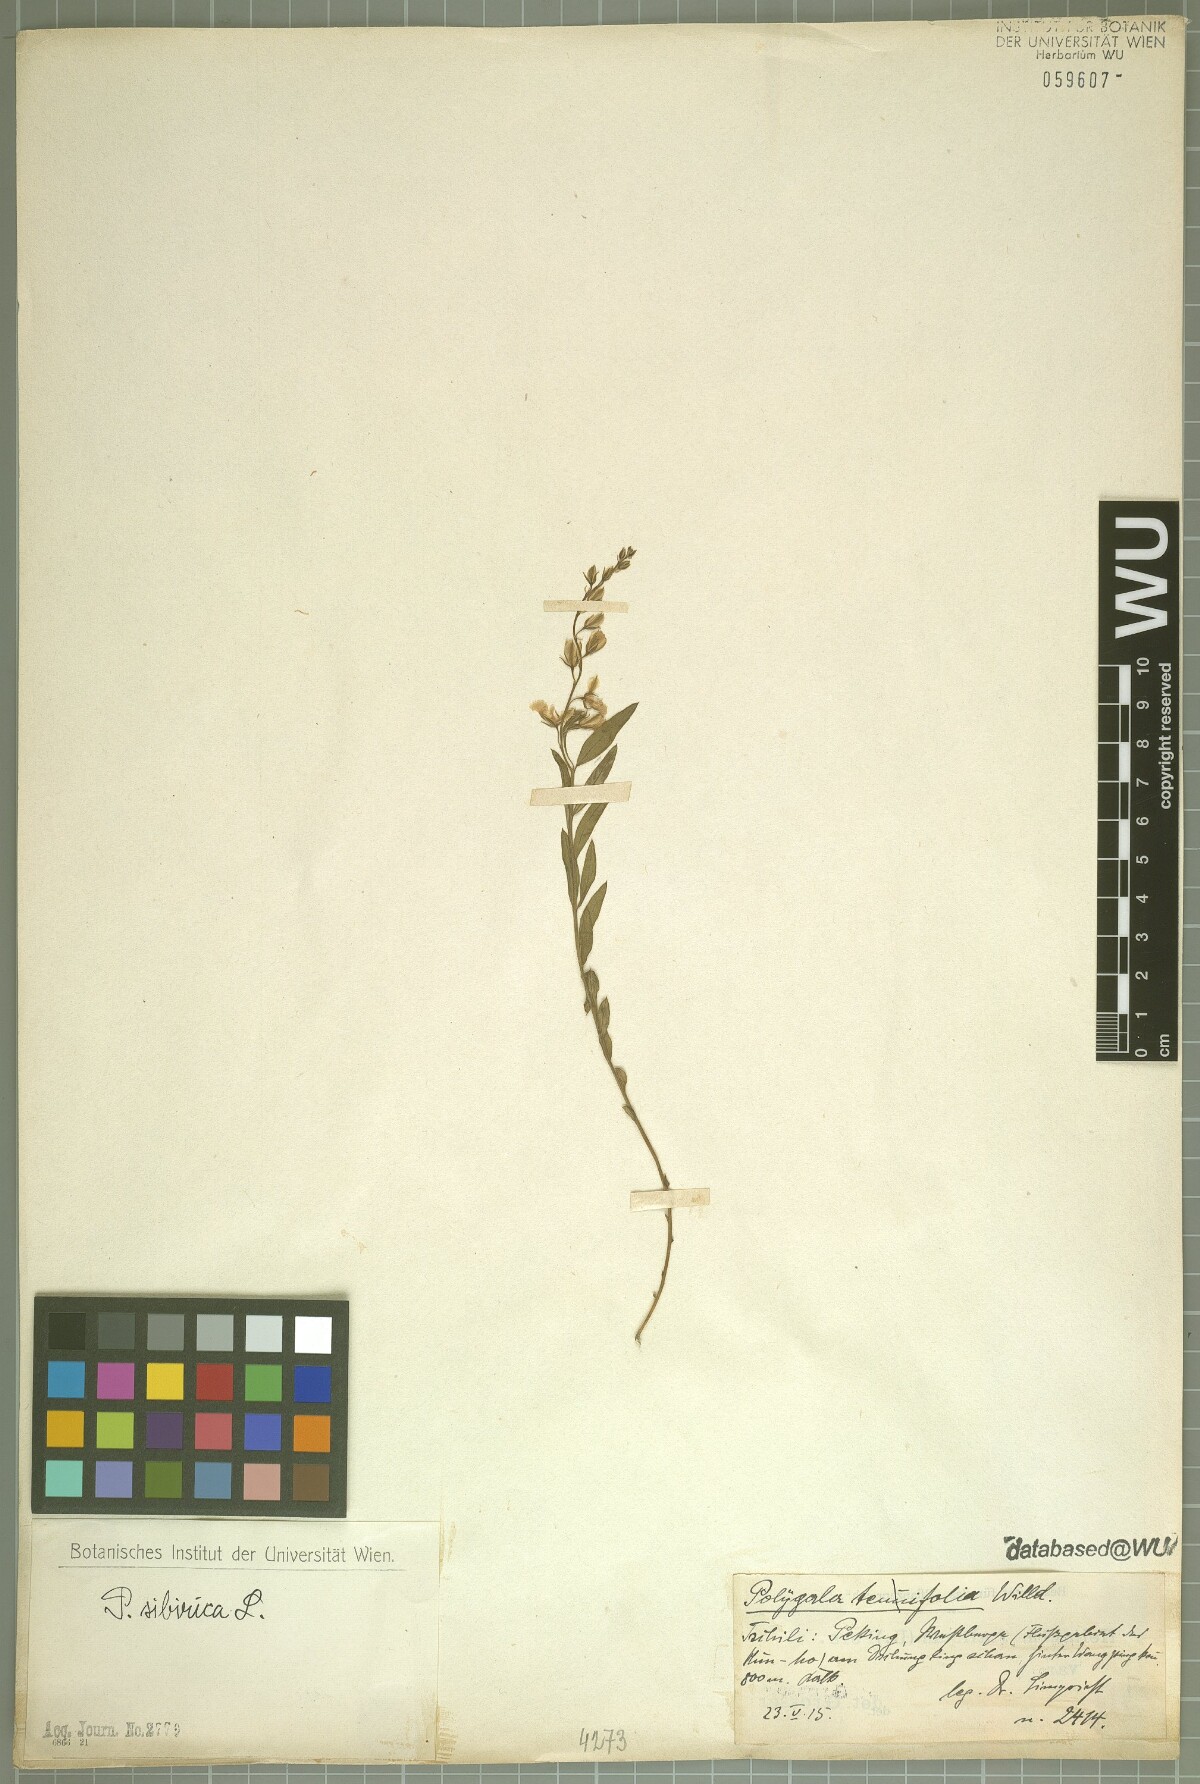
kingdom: Plantae
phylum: Tracheophyta
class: Magnoliopsida
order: Fabales
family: Polygalaceae
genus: Polygala
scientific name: Polygala sibirica
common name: Siberian polygala
